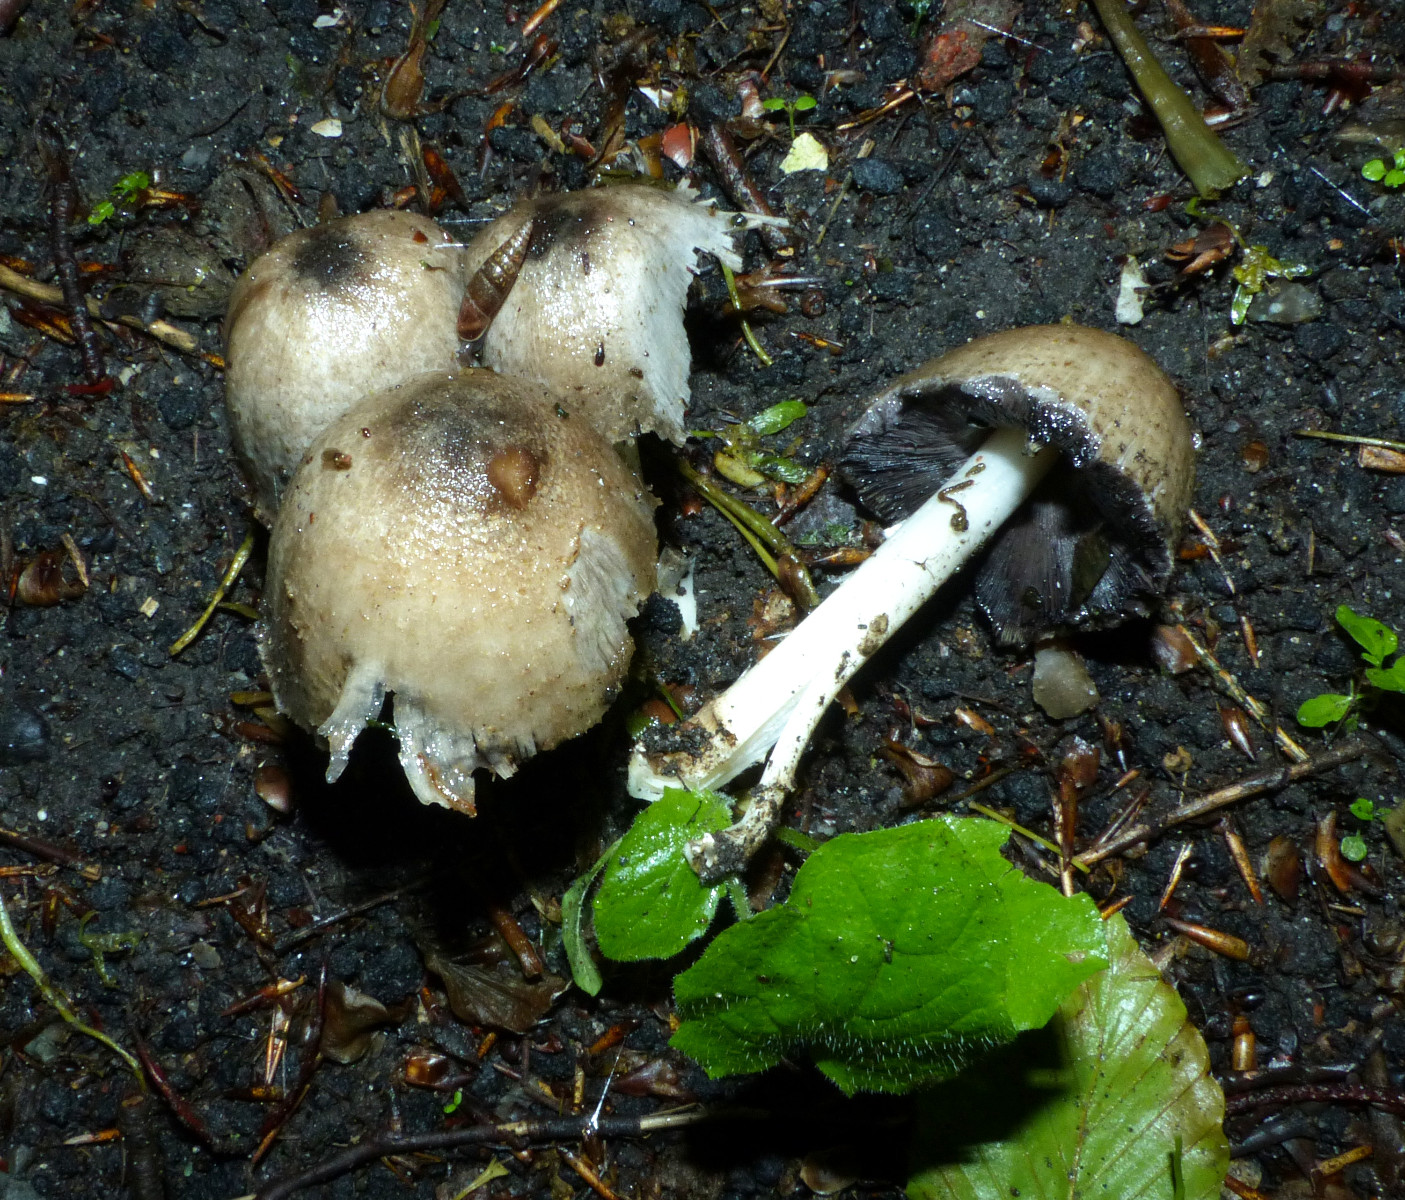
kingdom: Fungi
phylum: Basidiomycota
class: Agaricomycetes
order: Agaricales
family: Psathyrellaceae
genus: Coprinopsis
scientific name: Coprinopsis atramentaria
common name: almindelig blækhat
